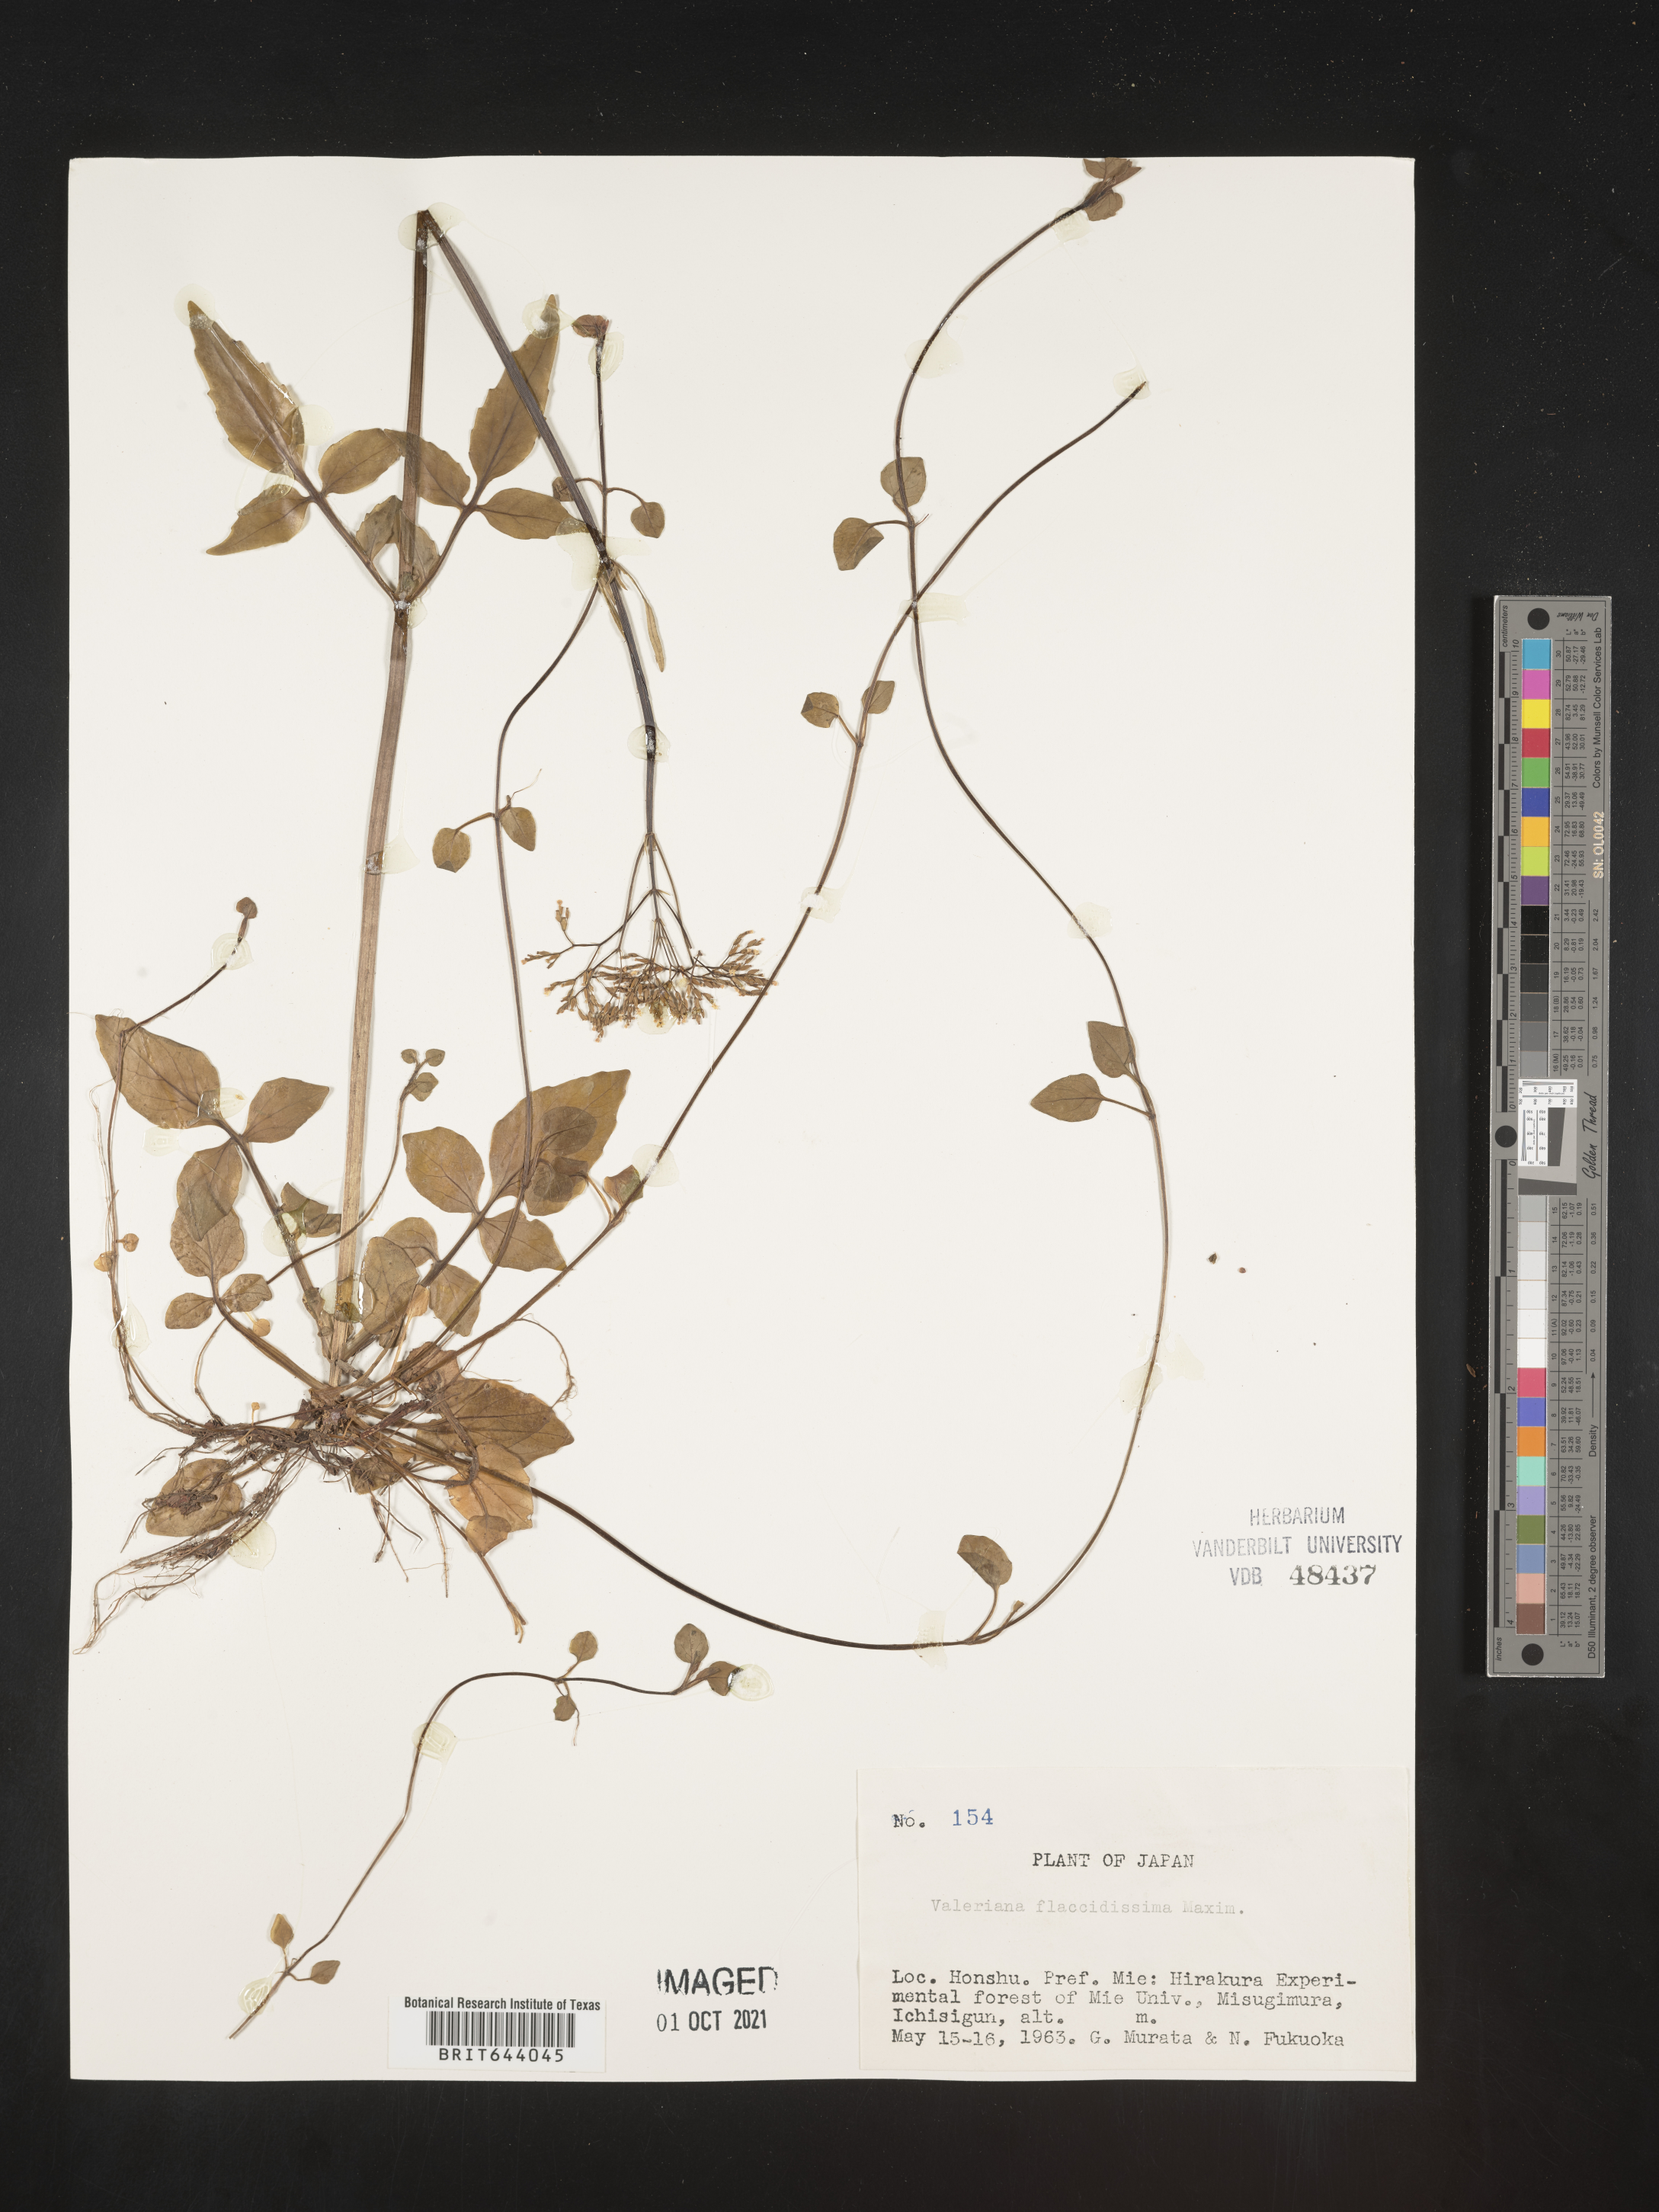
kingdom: Plantae
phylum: Tracheophyta
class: Magnoliopsida
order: Dipsacales
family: Caprifoliaceae
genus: Valeriana
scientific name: Valeriana flaccidissima
